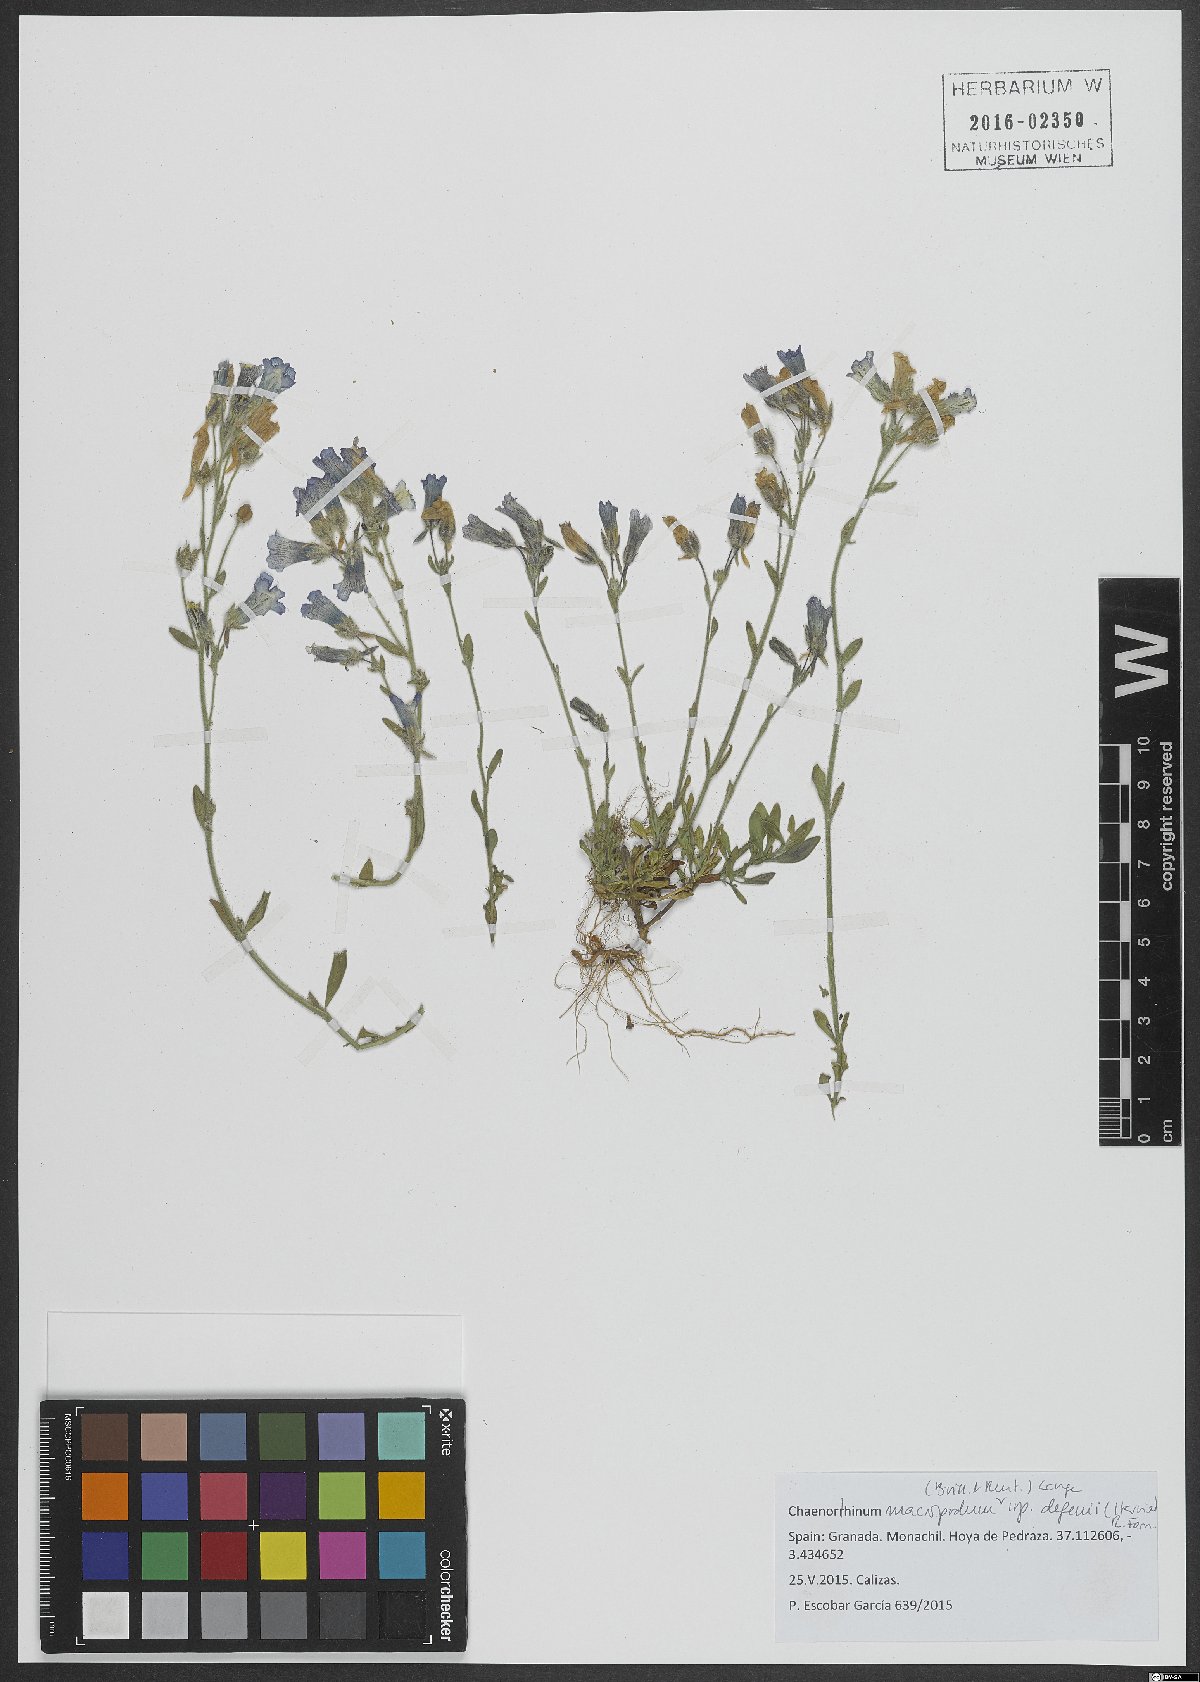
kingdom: Plantae
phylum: Tracheophyta
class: Magnoliopsida
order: Lamiales
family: Plantaginaceae
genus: Chaenorhinum
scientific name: Chaenorhinum macropodum
